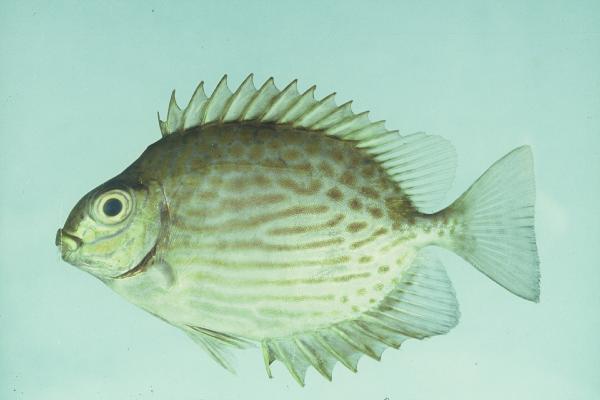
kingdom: Animalia
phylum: Chordata
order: Perciformes
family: Siganidae
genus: Siganus
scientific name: Siganus lineatus
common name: Lined rabbitfish
